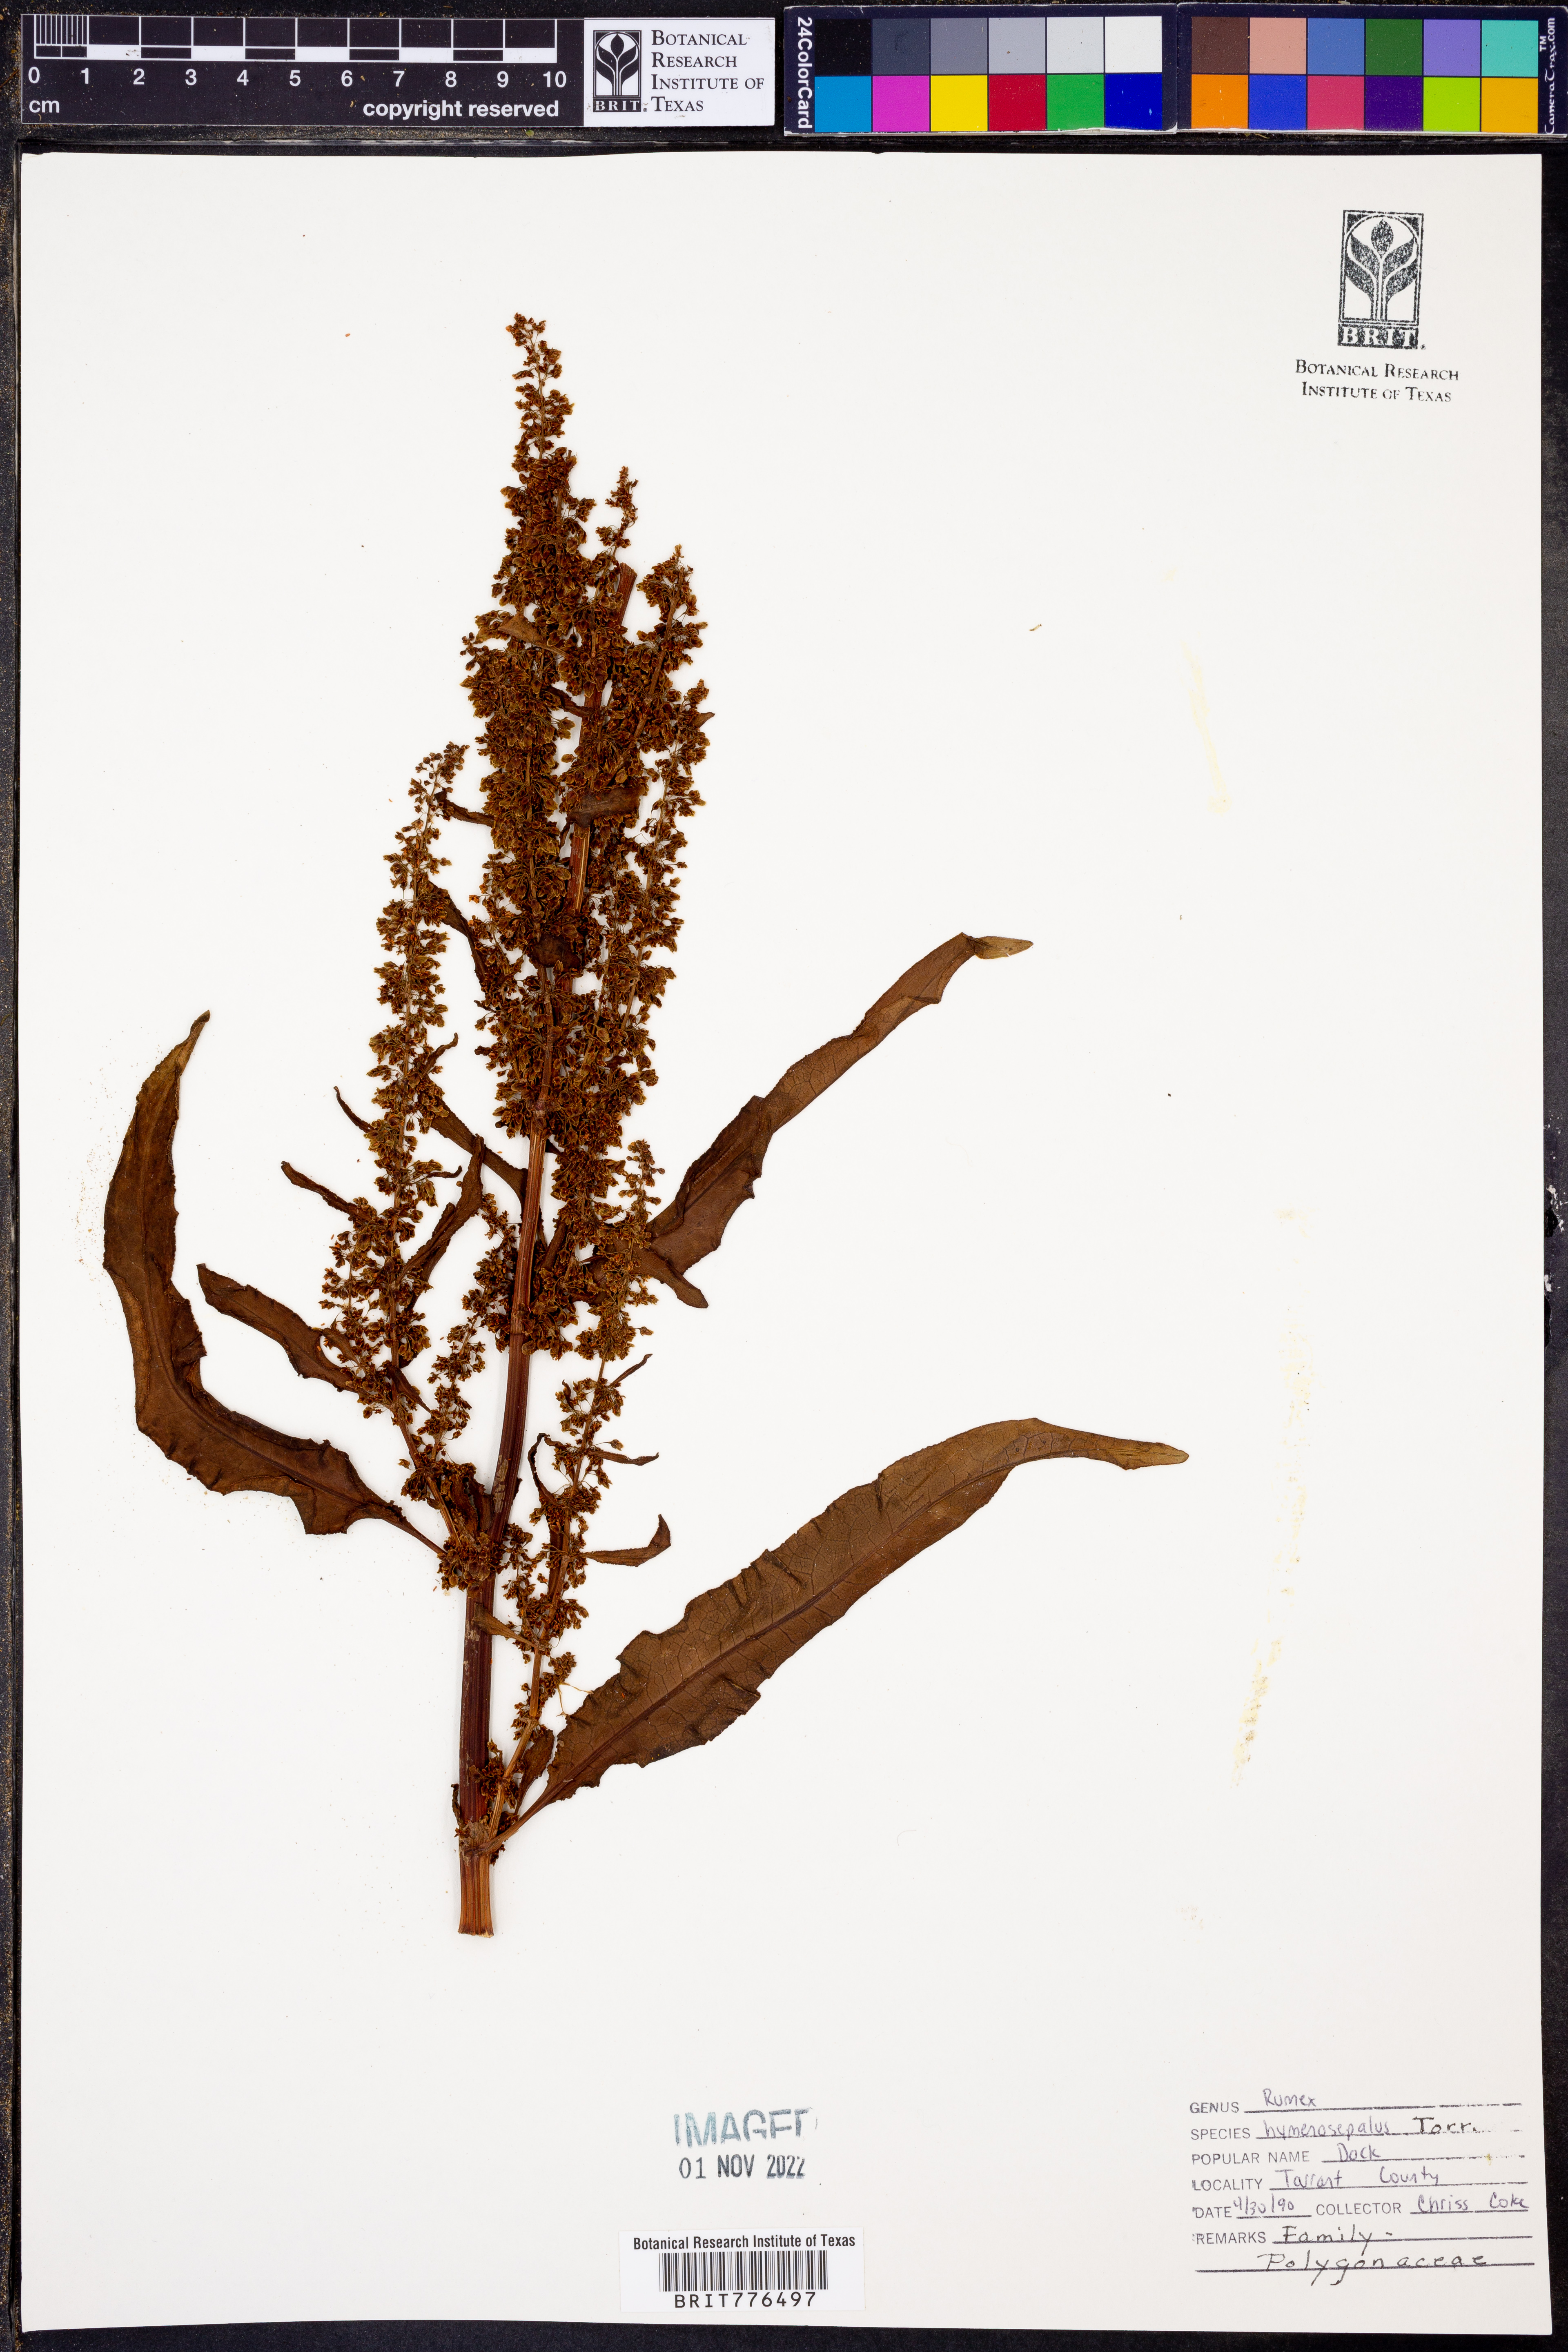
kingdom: Plantae
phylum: Tracheophyta
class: Magnoliopsida
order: Caryophyllales
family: Polygonaceae
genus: Rumex
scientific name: Rumex hymenosepalus
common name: Ganagra
